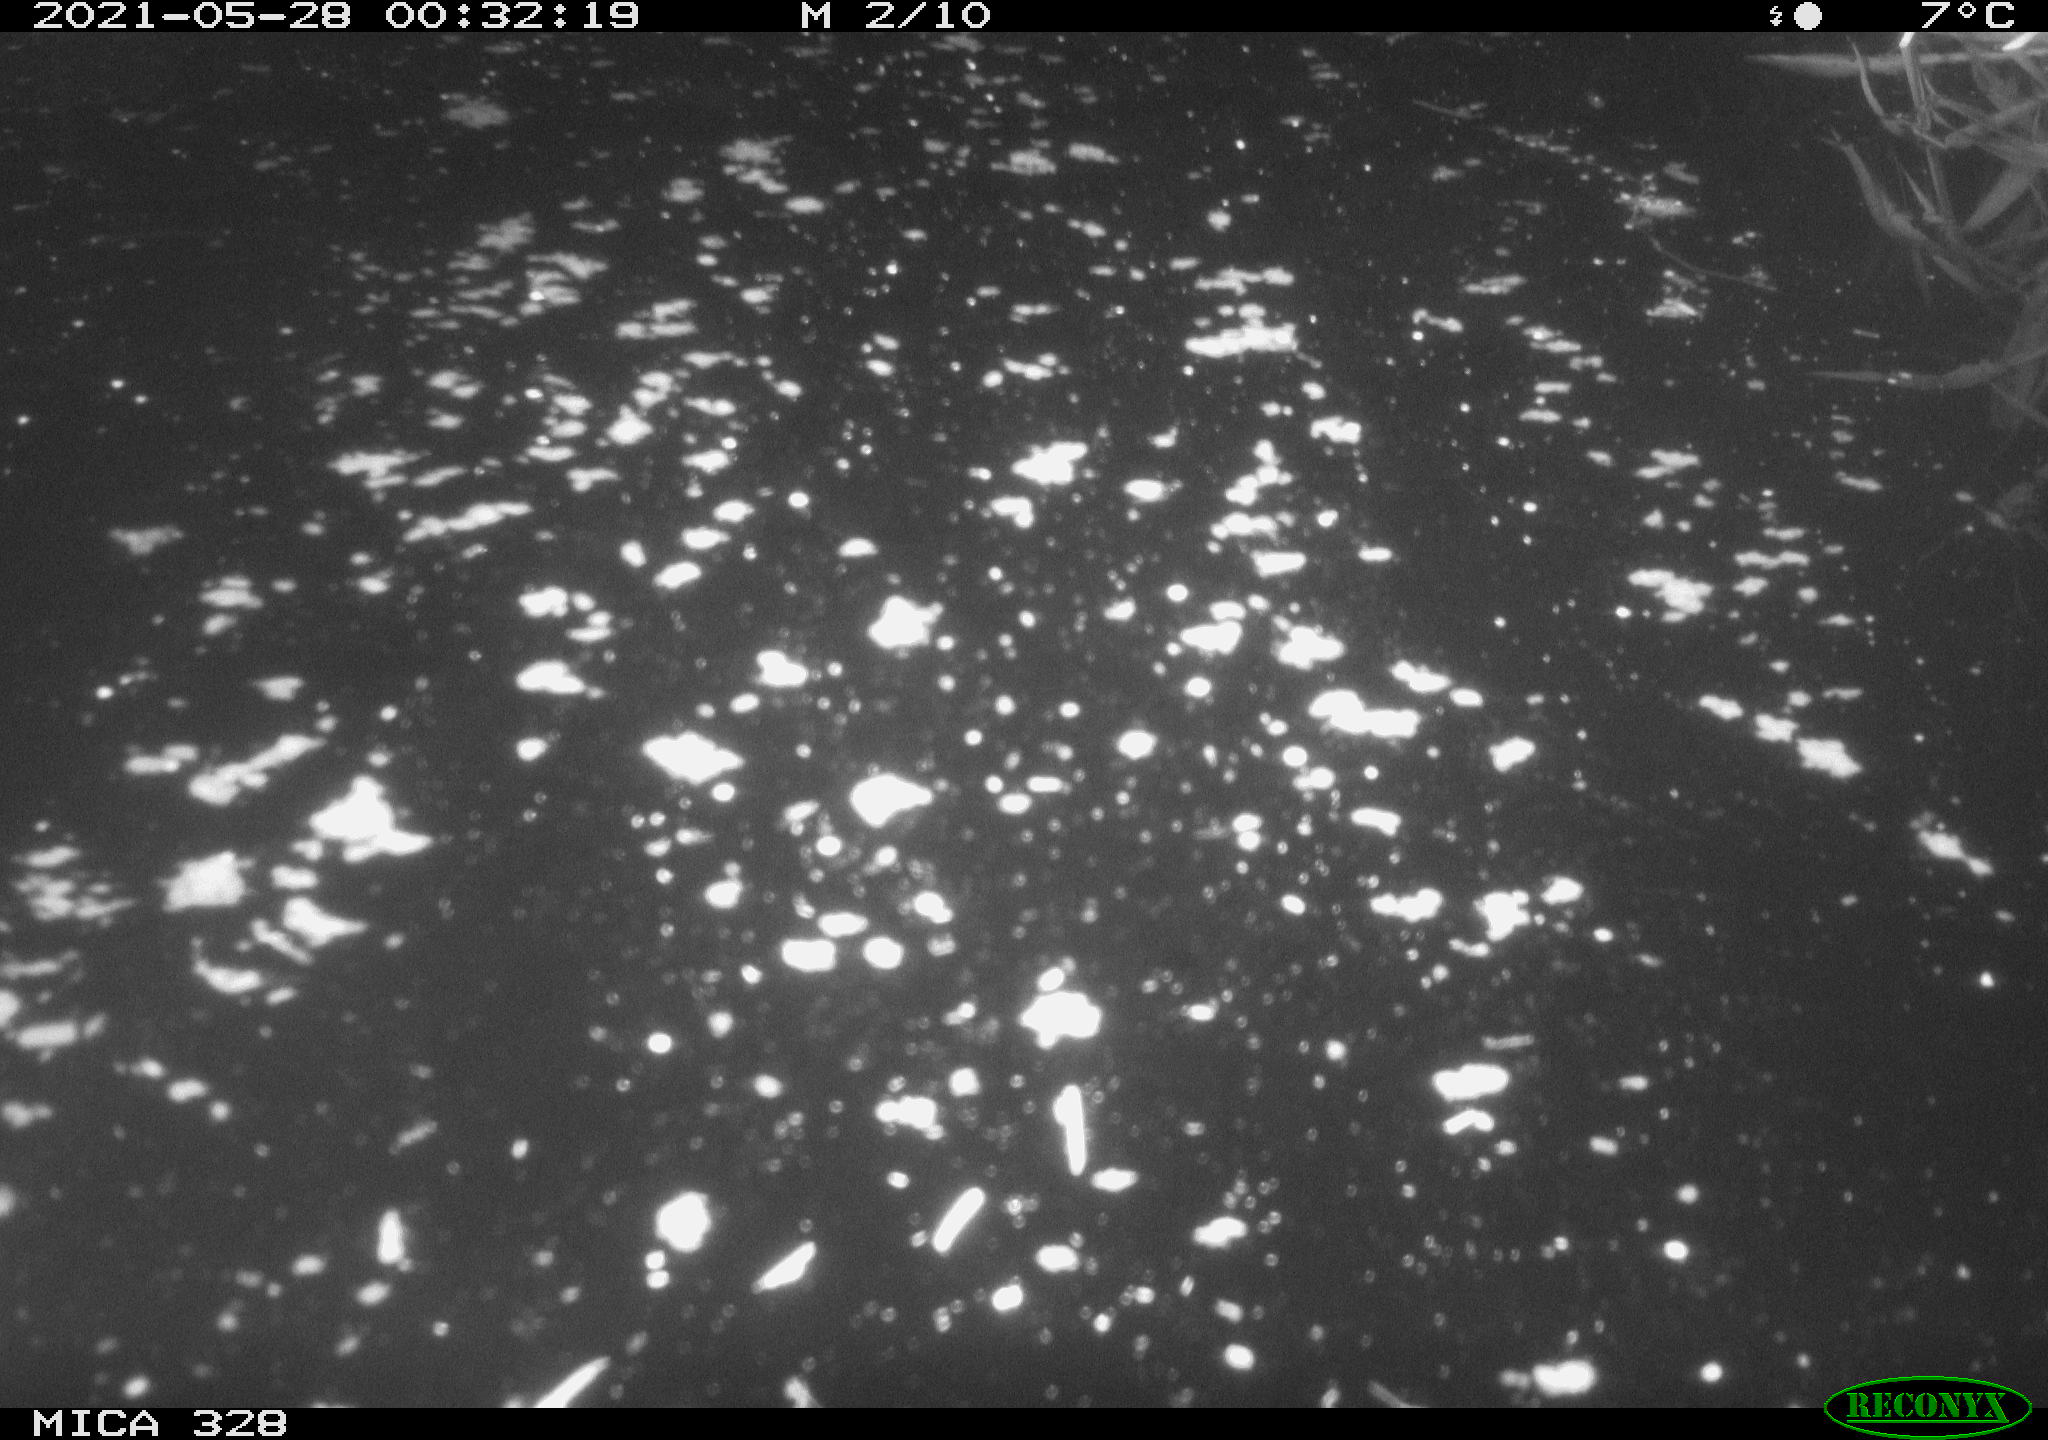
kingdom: Animalia
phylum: Chordata
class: Mammalia
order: Rodentia
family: Cricetidae
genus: Ondatra
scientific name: Ondatra zibethicus
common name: Muskrat
